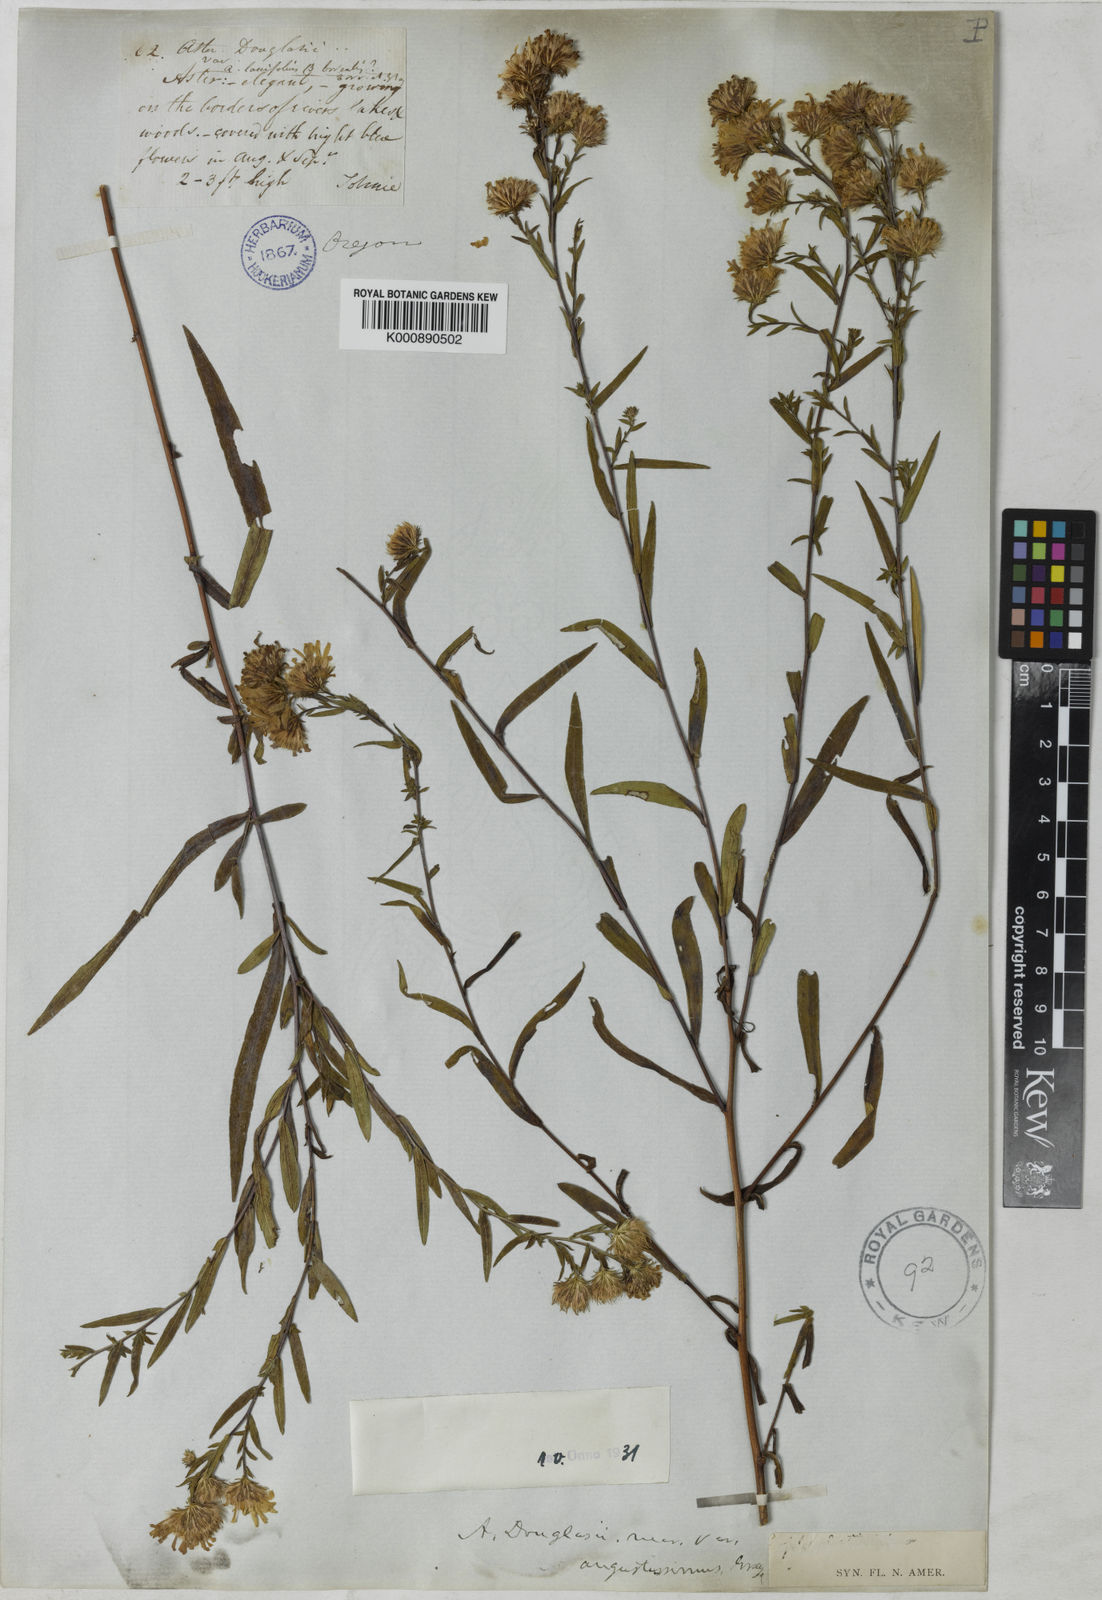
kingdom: Plantae
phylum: Tracheophyta
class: Magnoliopsida
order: Asterales
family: Asteraceae
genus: Aster
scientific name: Aster
